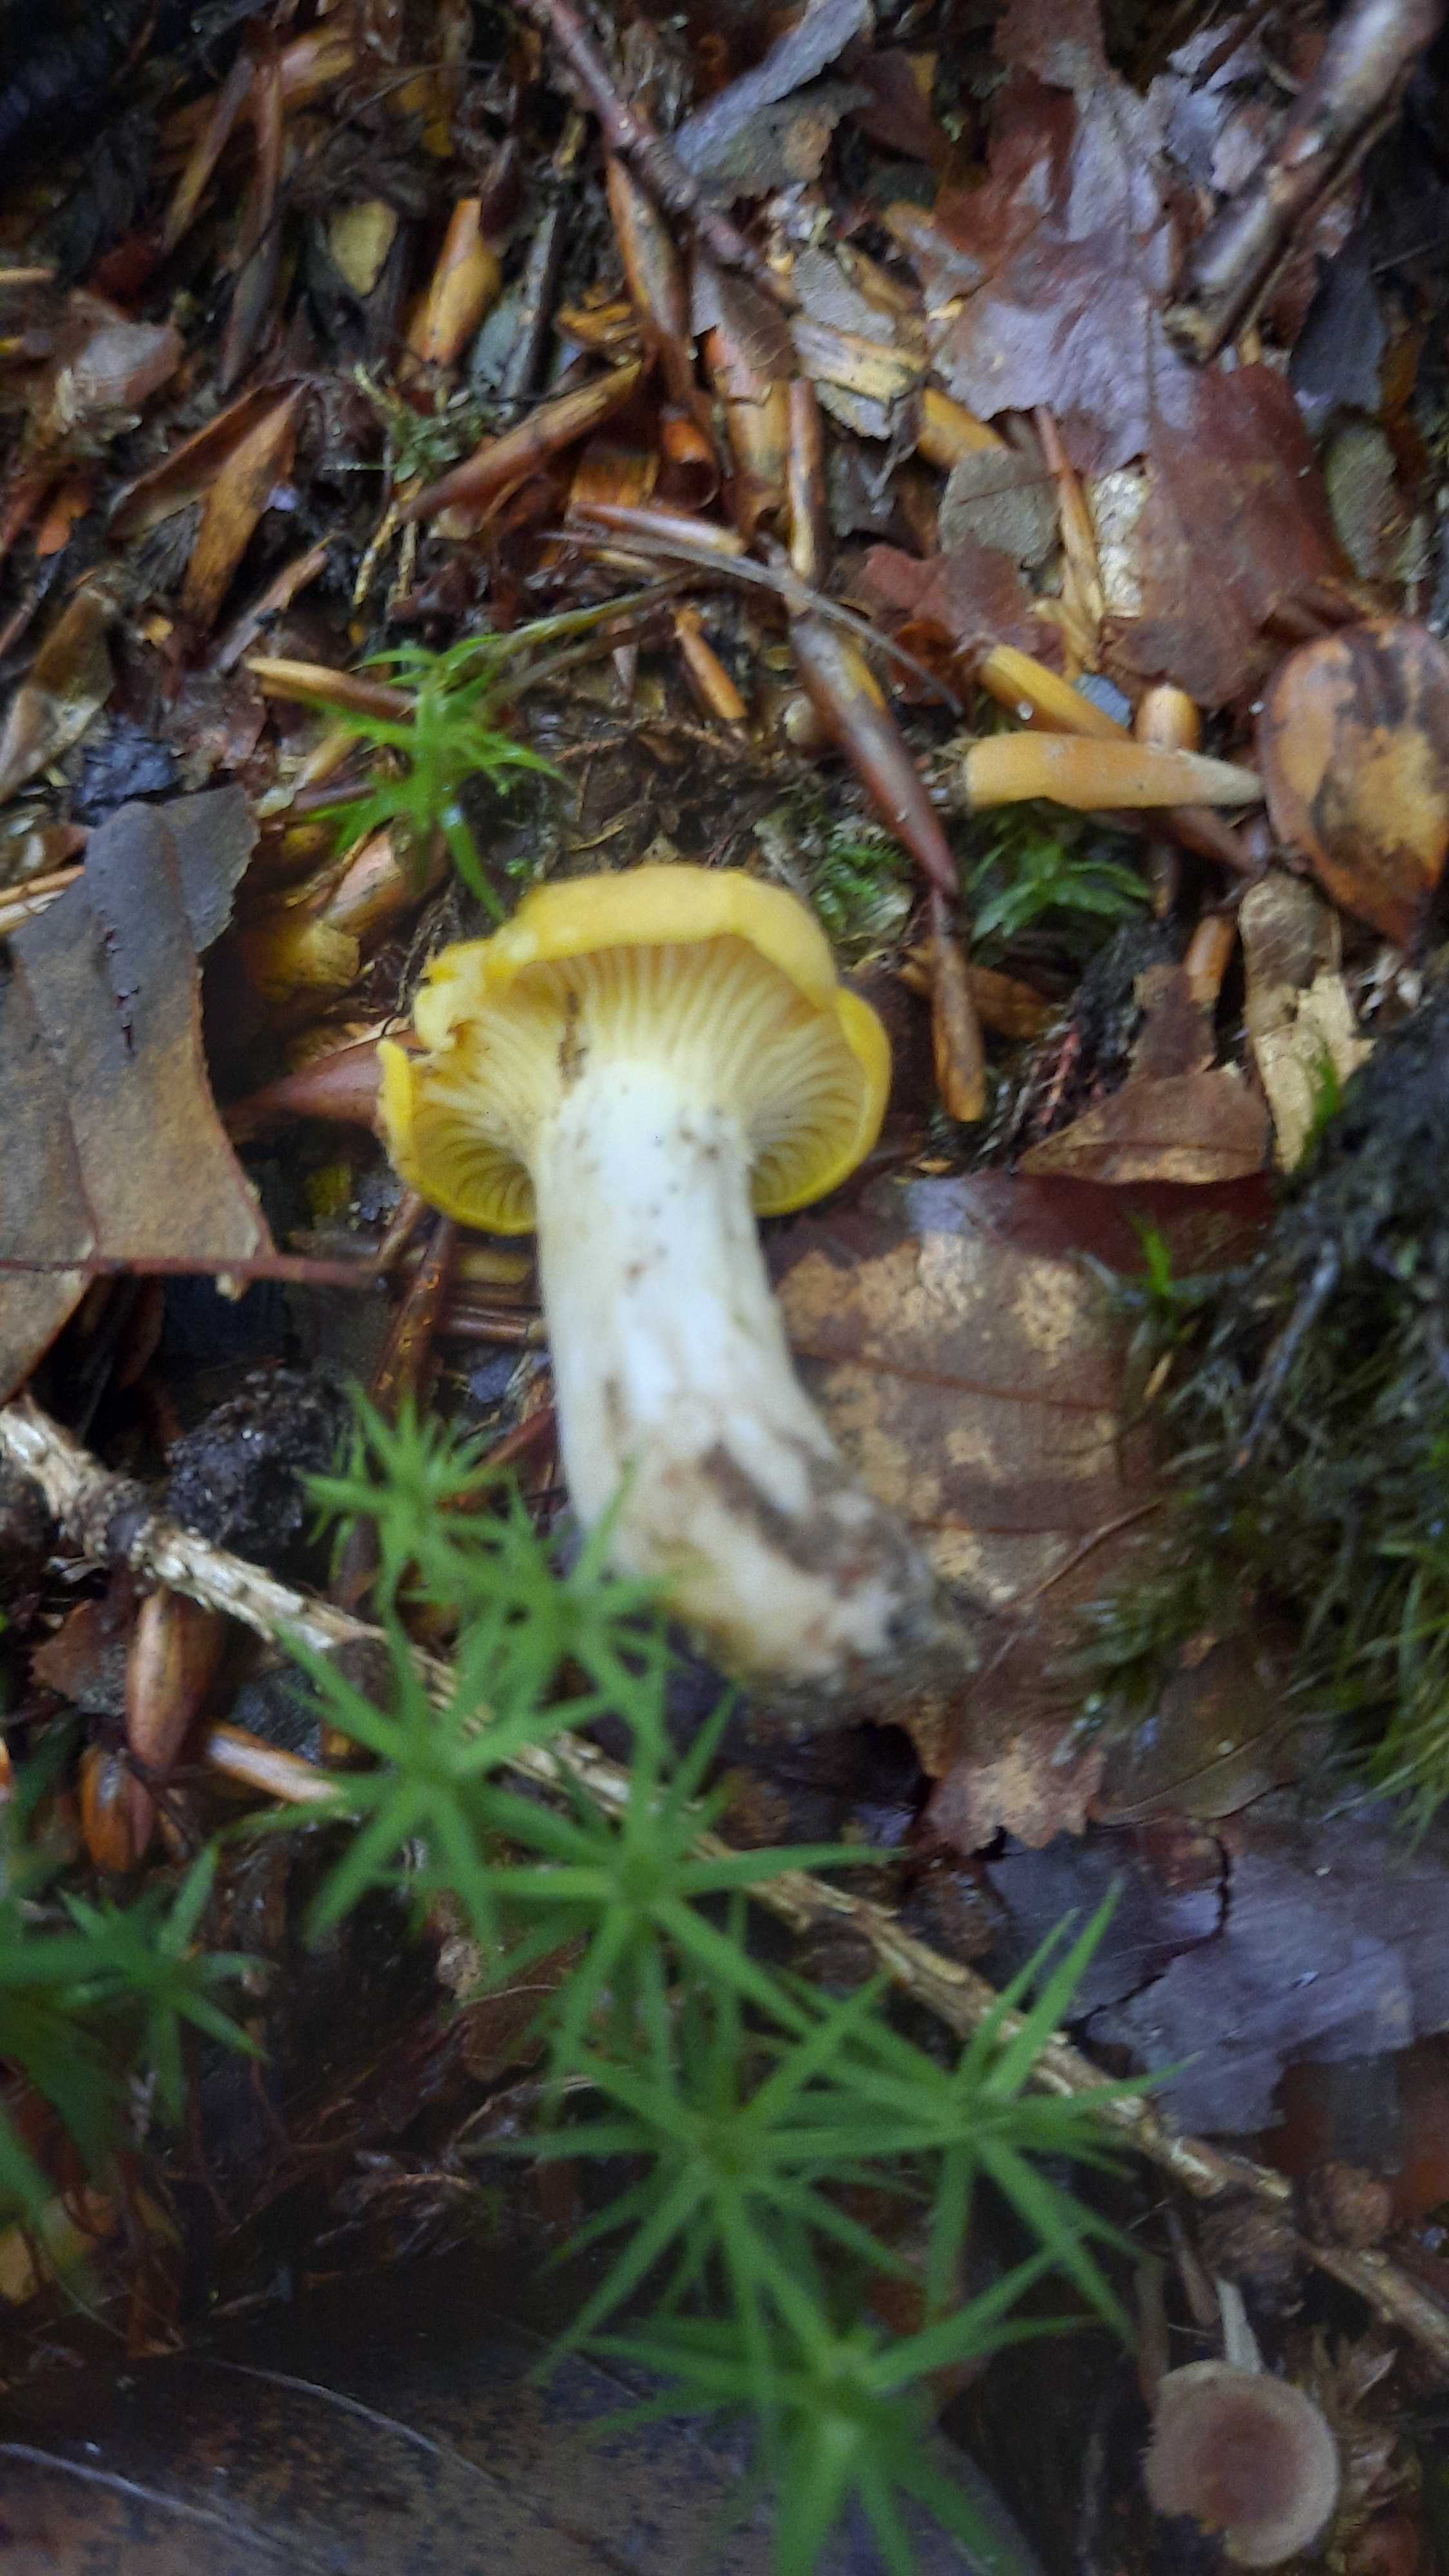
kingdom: Fungi
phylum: Basidiomycota
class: Agaricomycetes
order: Cantharellales
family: Hydnaceae
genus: Cantharellus
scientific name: Cantharellus cibarius
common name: almindelig kantarel
